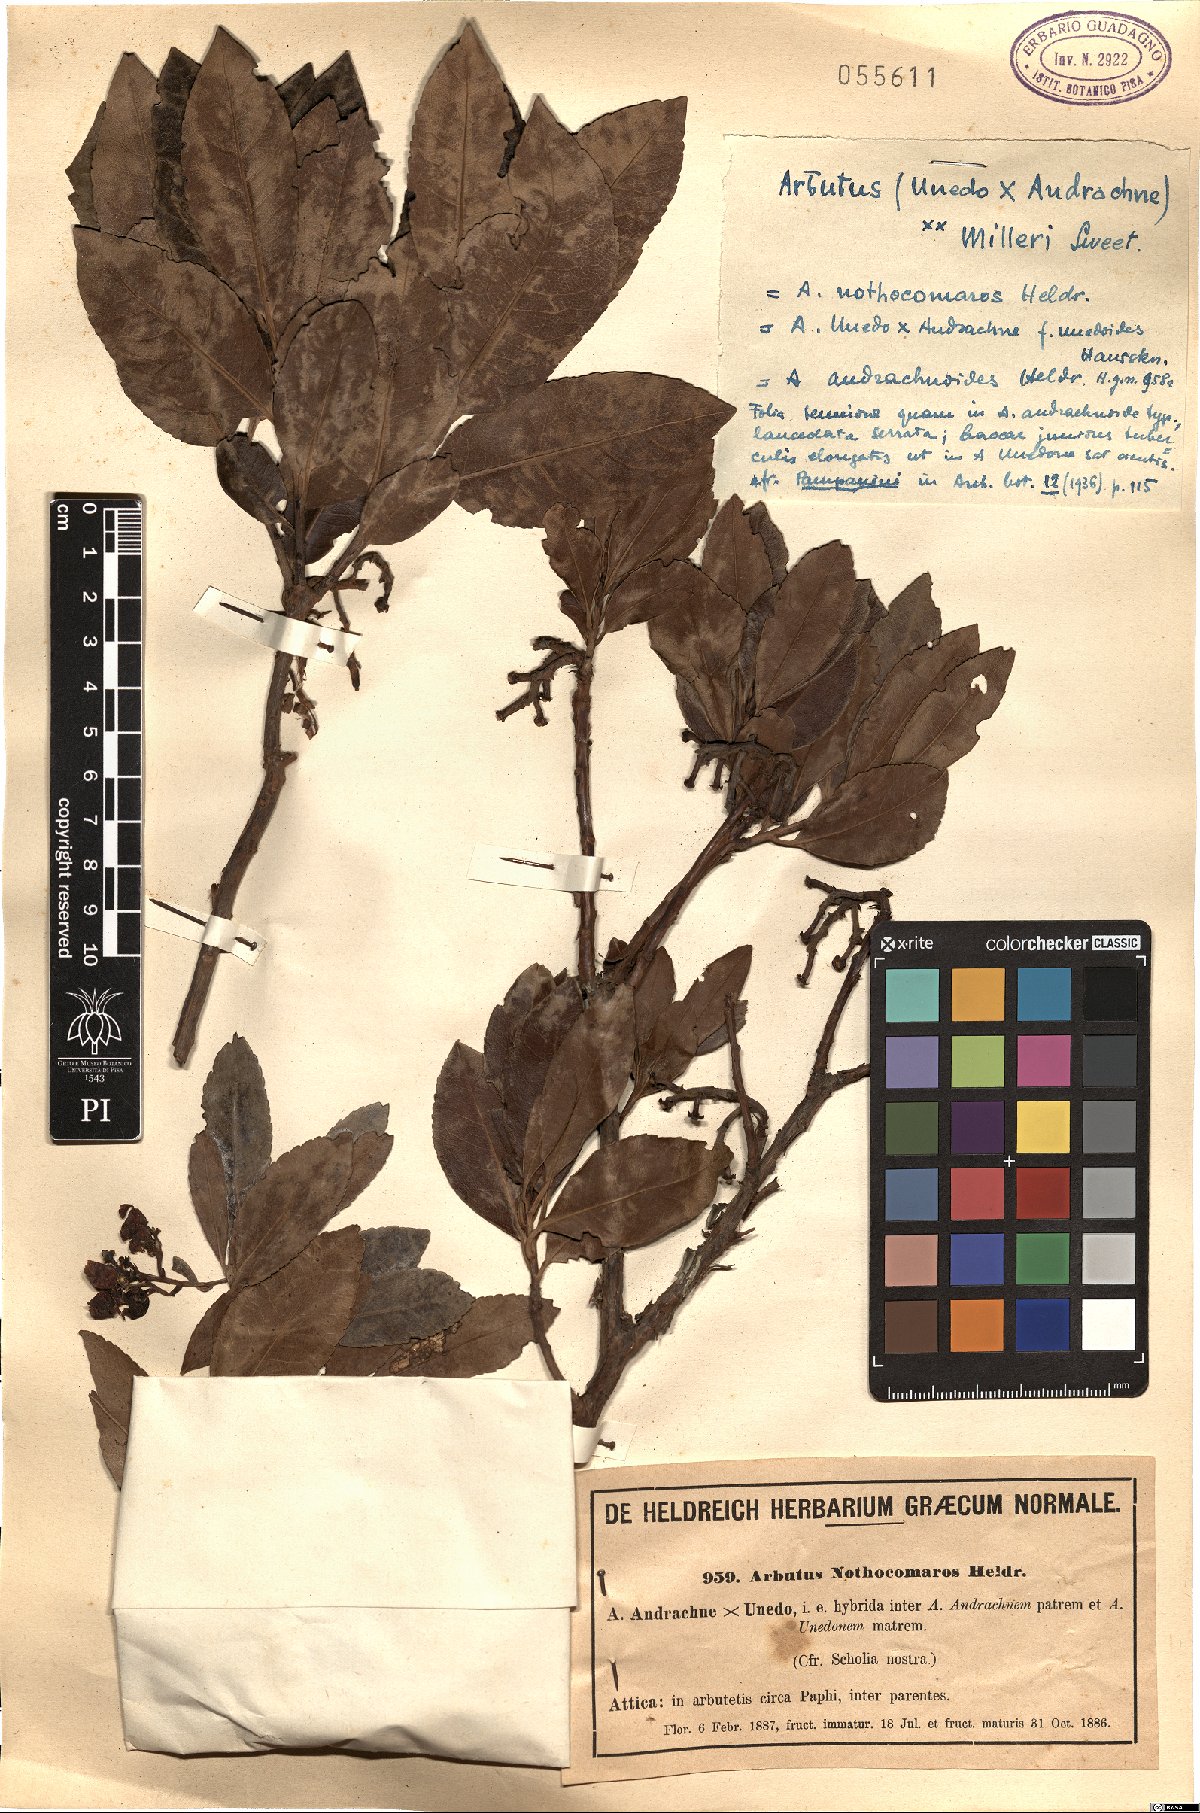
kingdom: Plantae
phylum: Tracheophyta
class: Magnoliopsida
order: Ericales
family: Ericaceae
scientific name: Ericaceae
